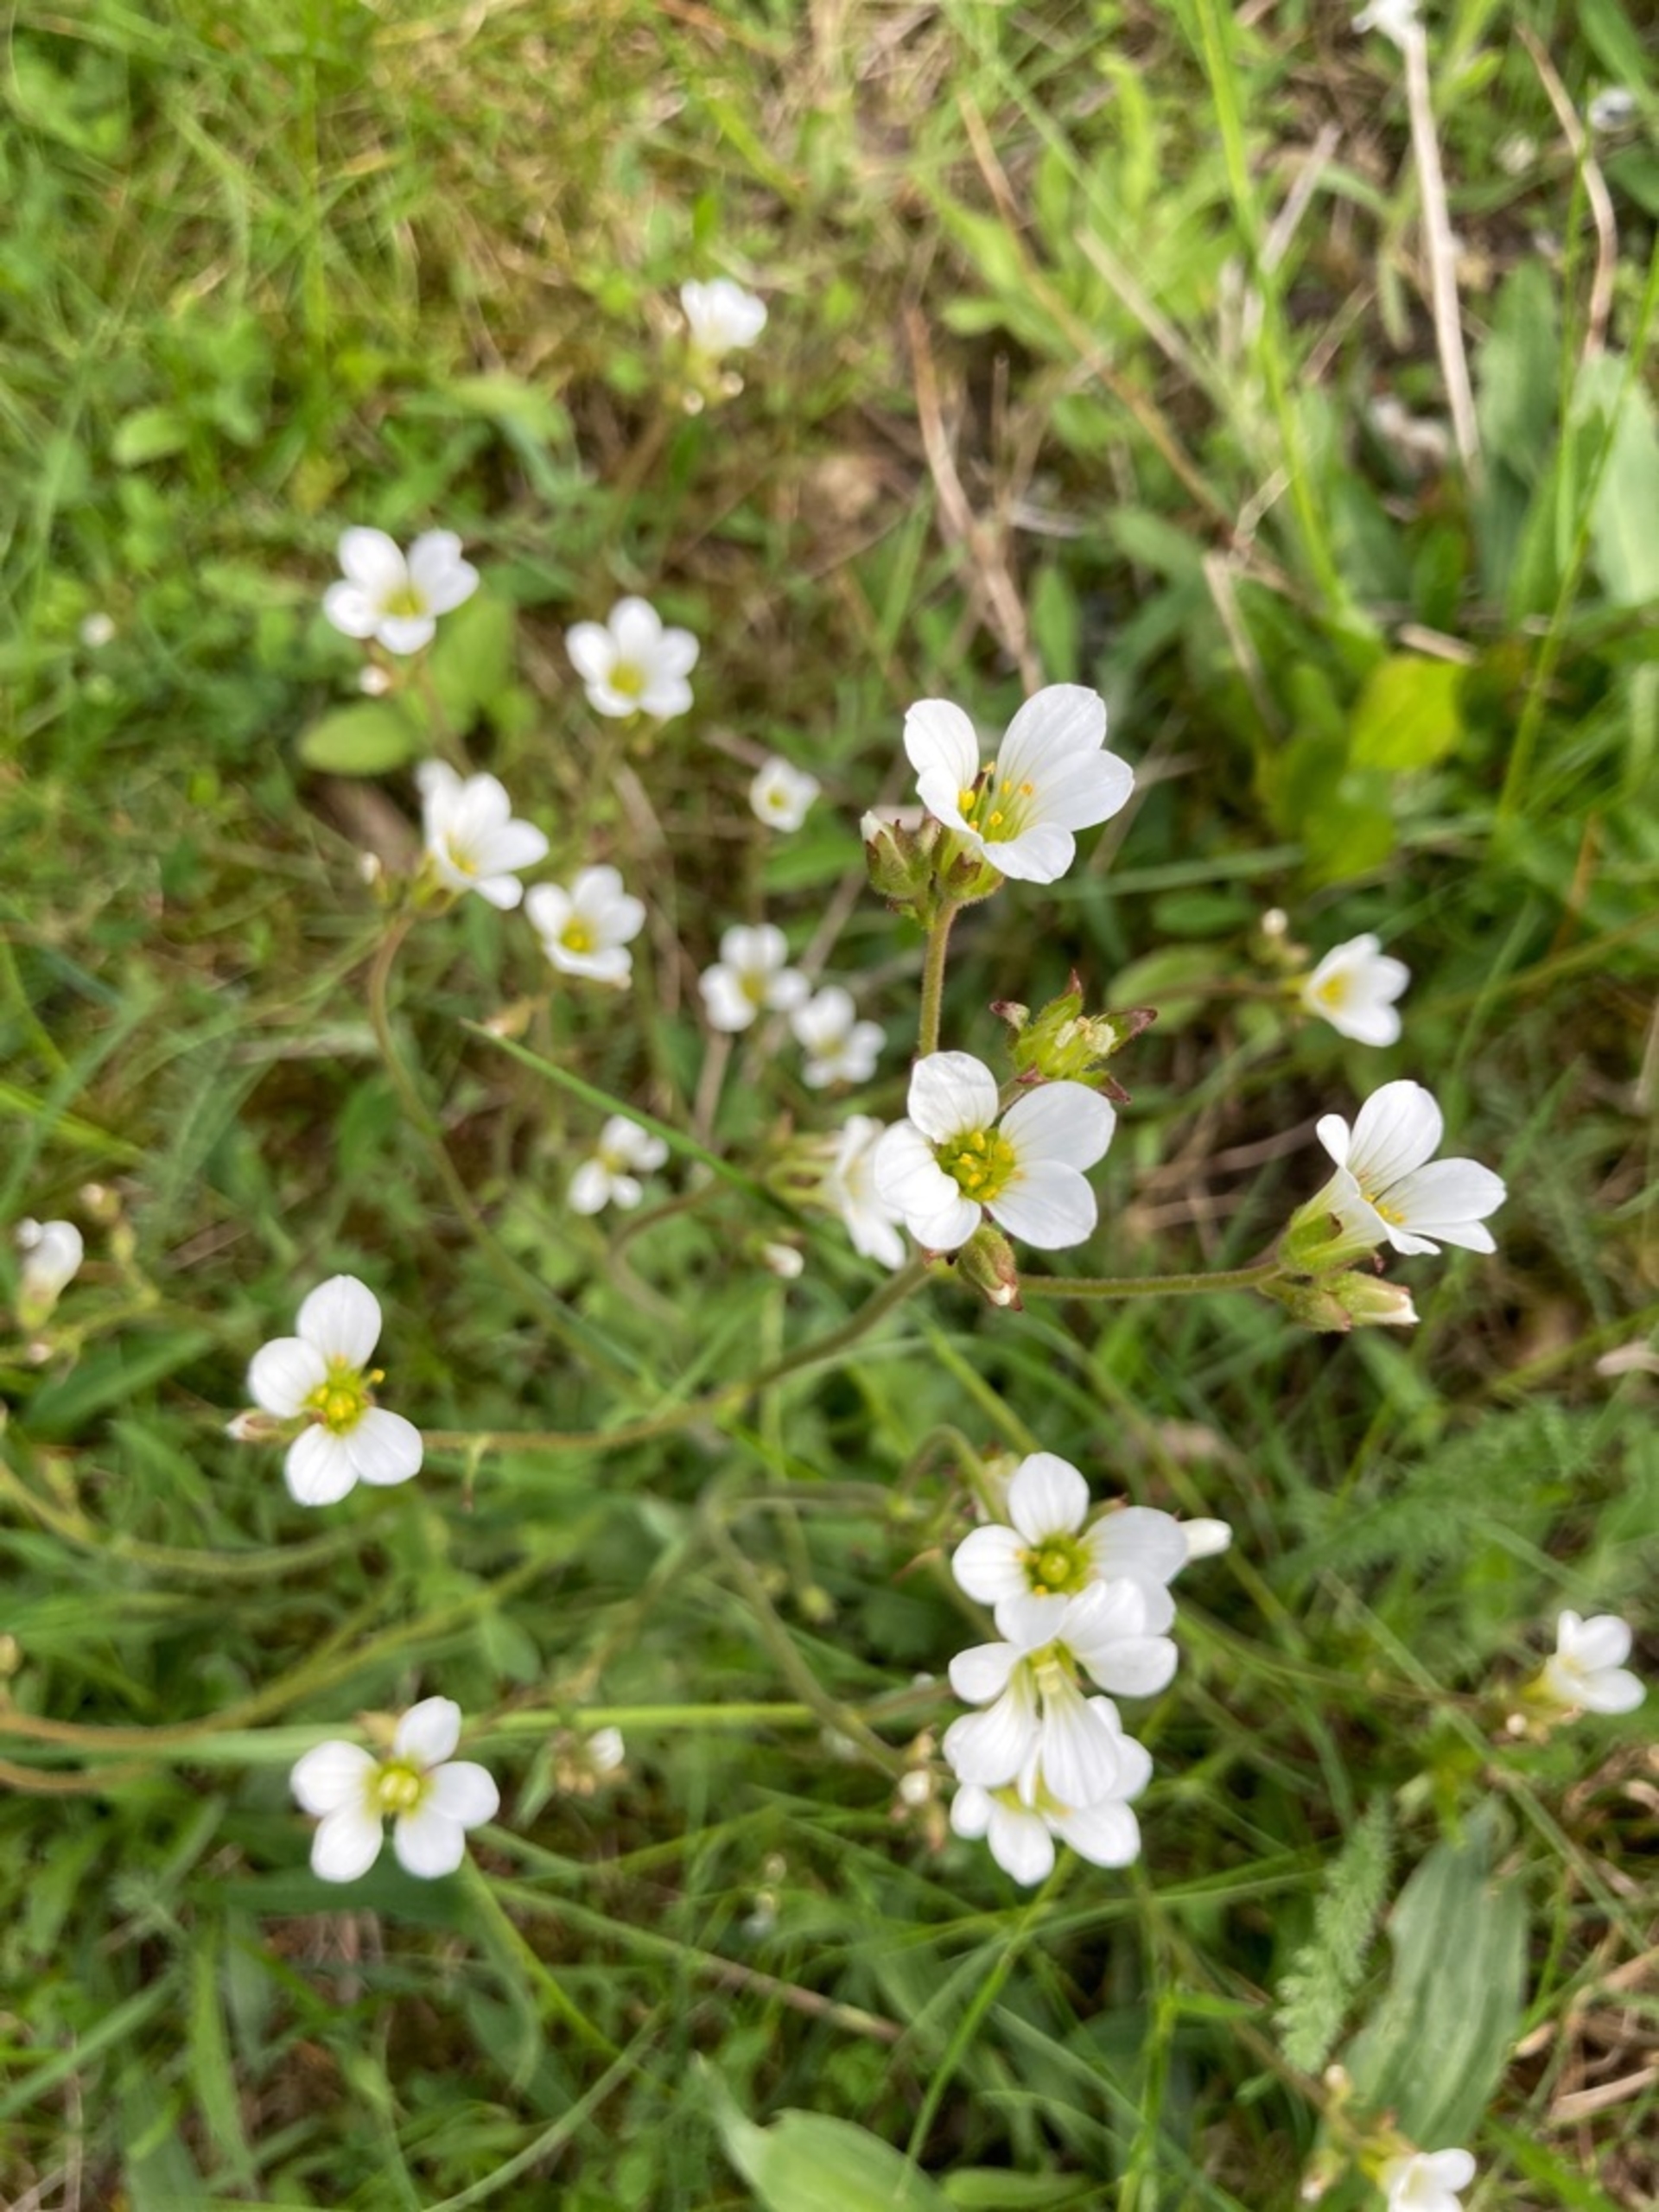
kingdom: Plantae
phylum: Tracheophyta
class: Magnoliopsida
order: Saxifragales
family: Saxifragaceae
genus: Saxifraga
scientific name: Saxifraga granulata
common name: Kornet stenbræk
